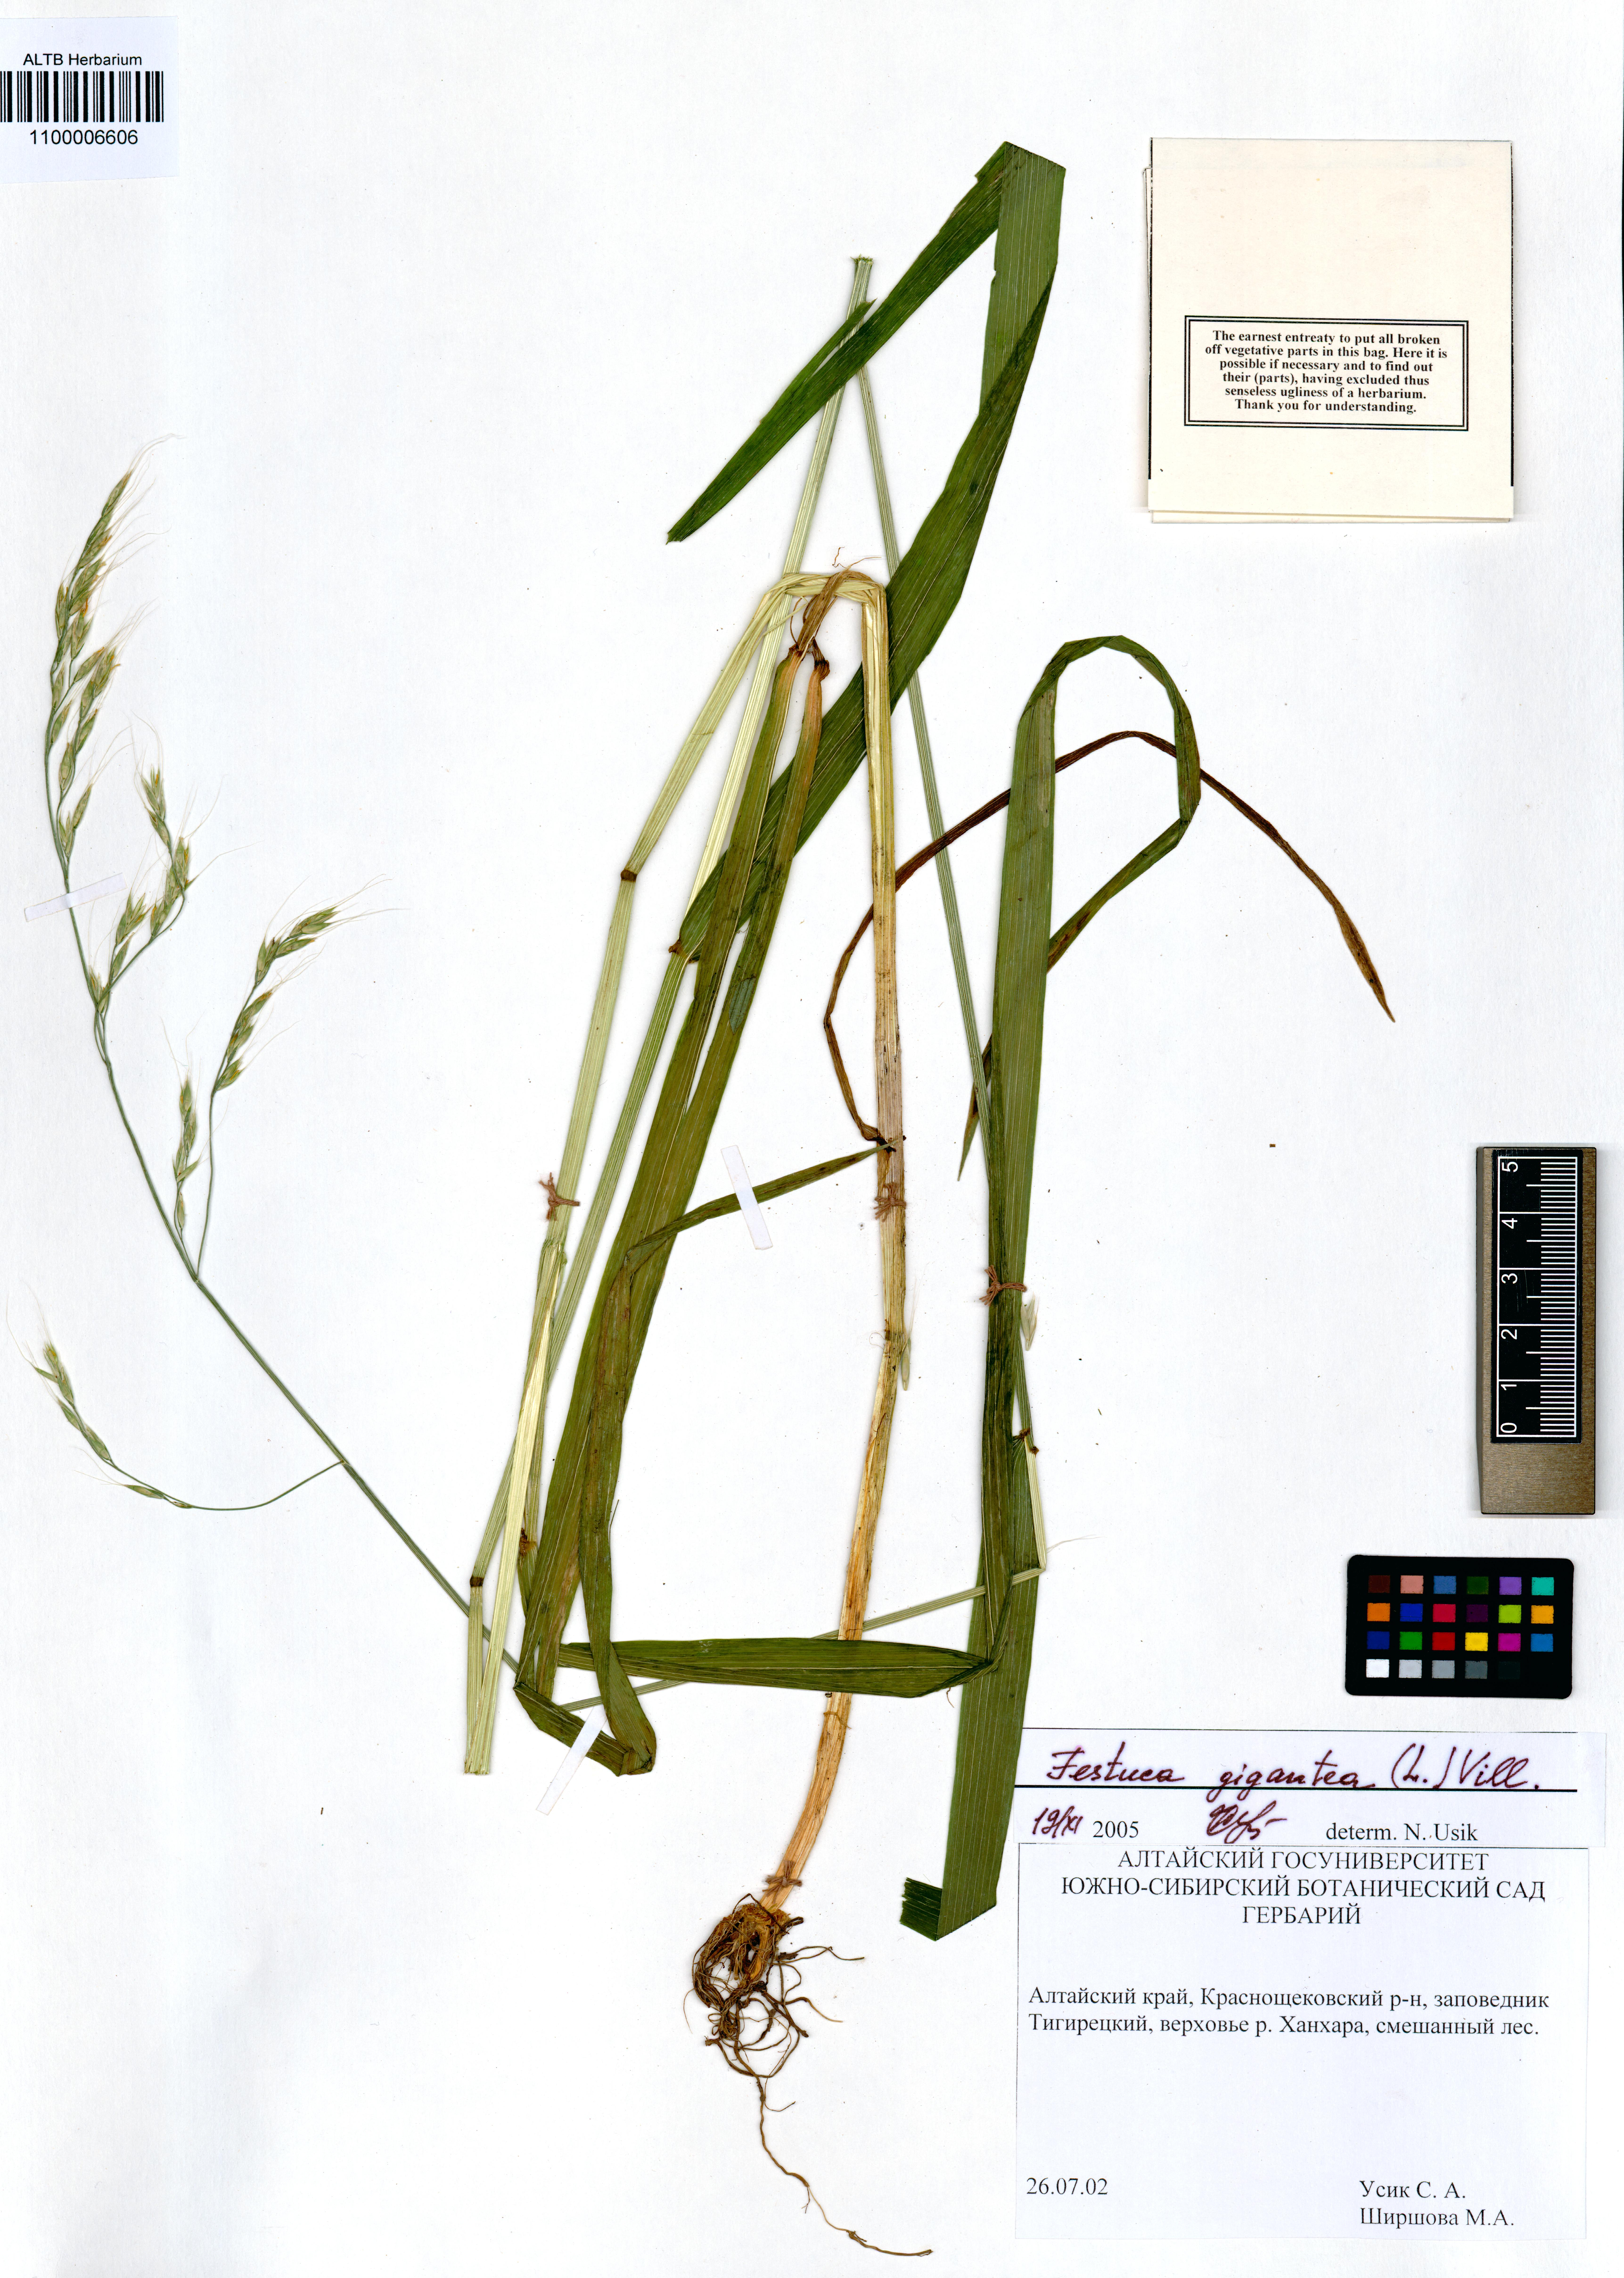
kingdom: Plantae
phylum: Tracheophyta
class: Liliopsida
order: Poales
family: Poaceae
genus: Lolium
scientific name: Lolium giganteum
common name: Giant fescue
